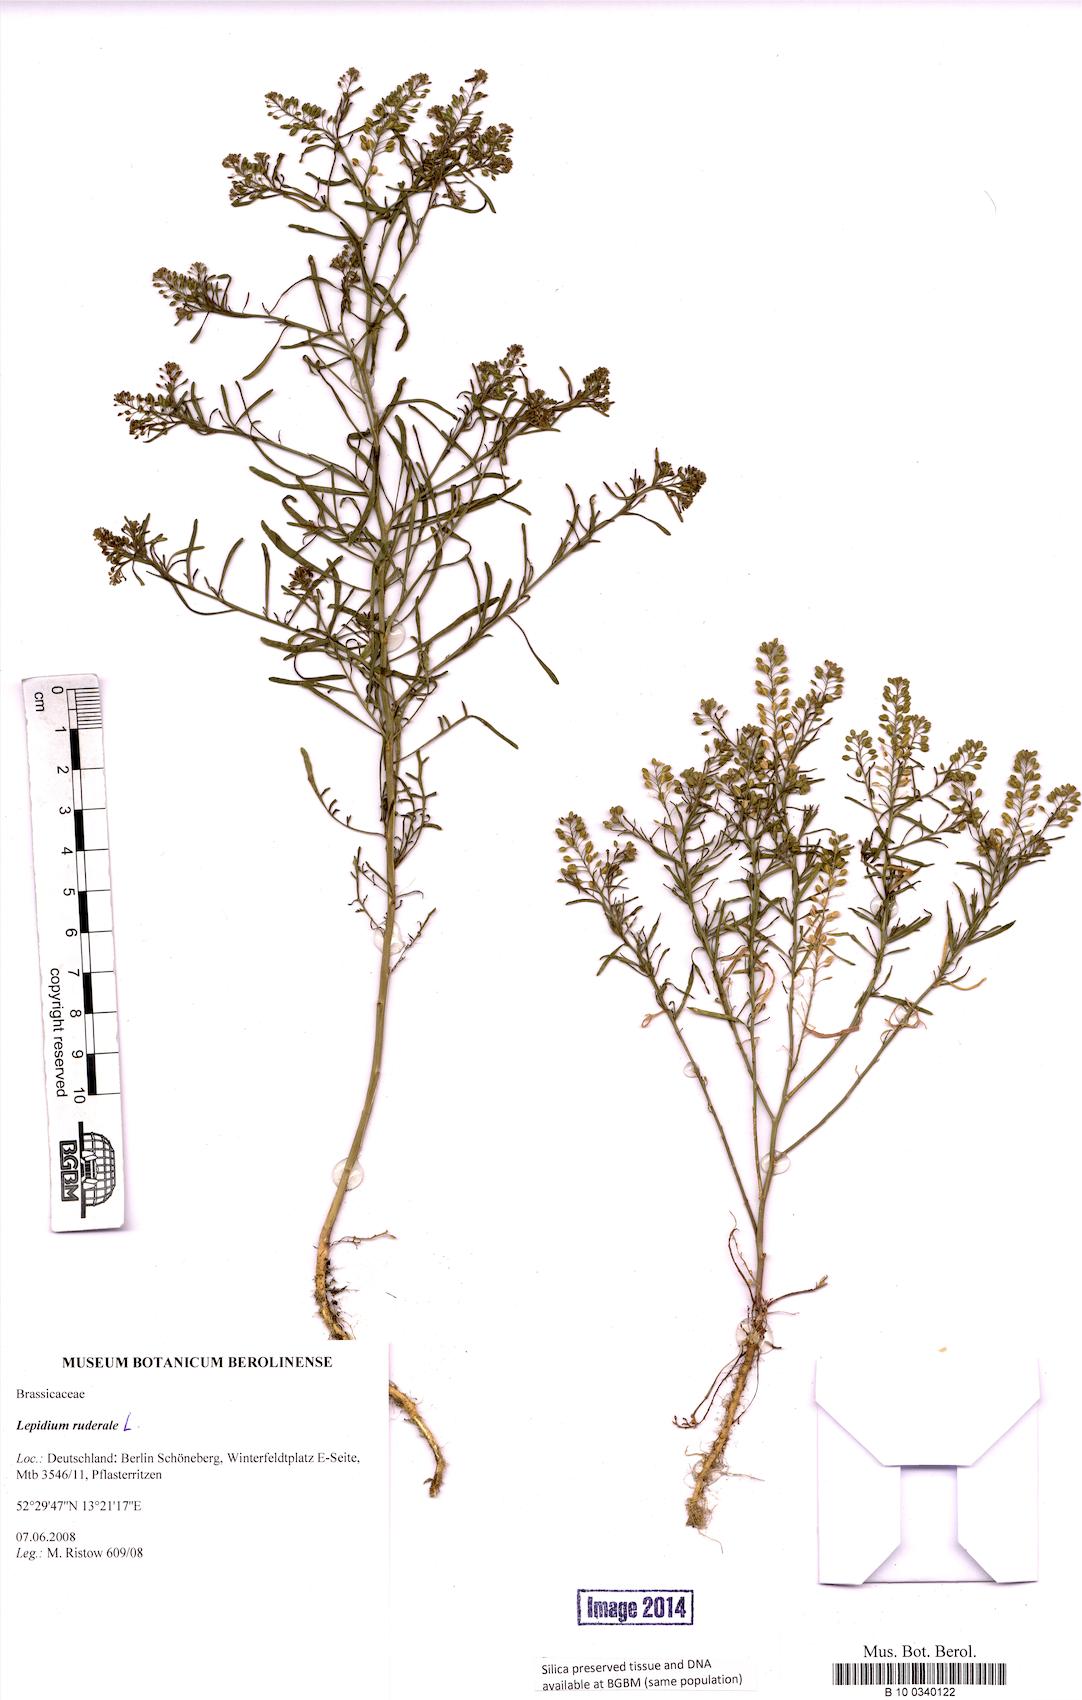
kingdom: Plantae
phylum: Tracheophyta
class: Magnoliopsida
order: Brassicales
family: Brassicaceae
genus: Lepidium
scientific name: Lepidium ruderale
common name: Narrow-leaved pepperwort
